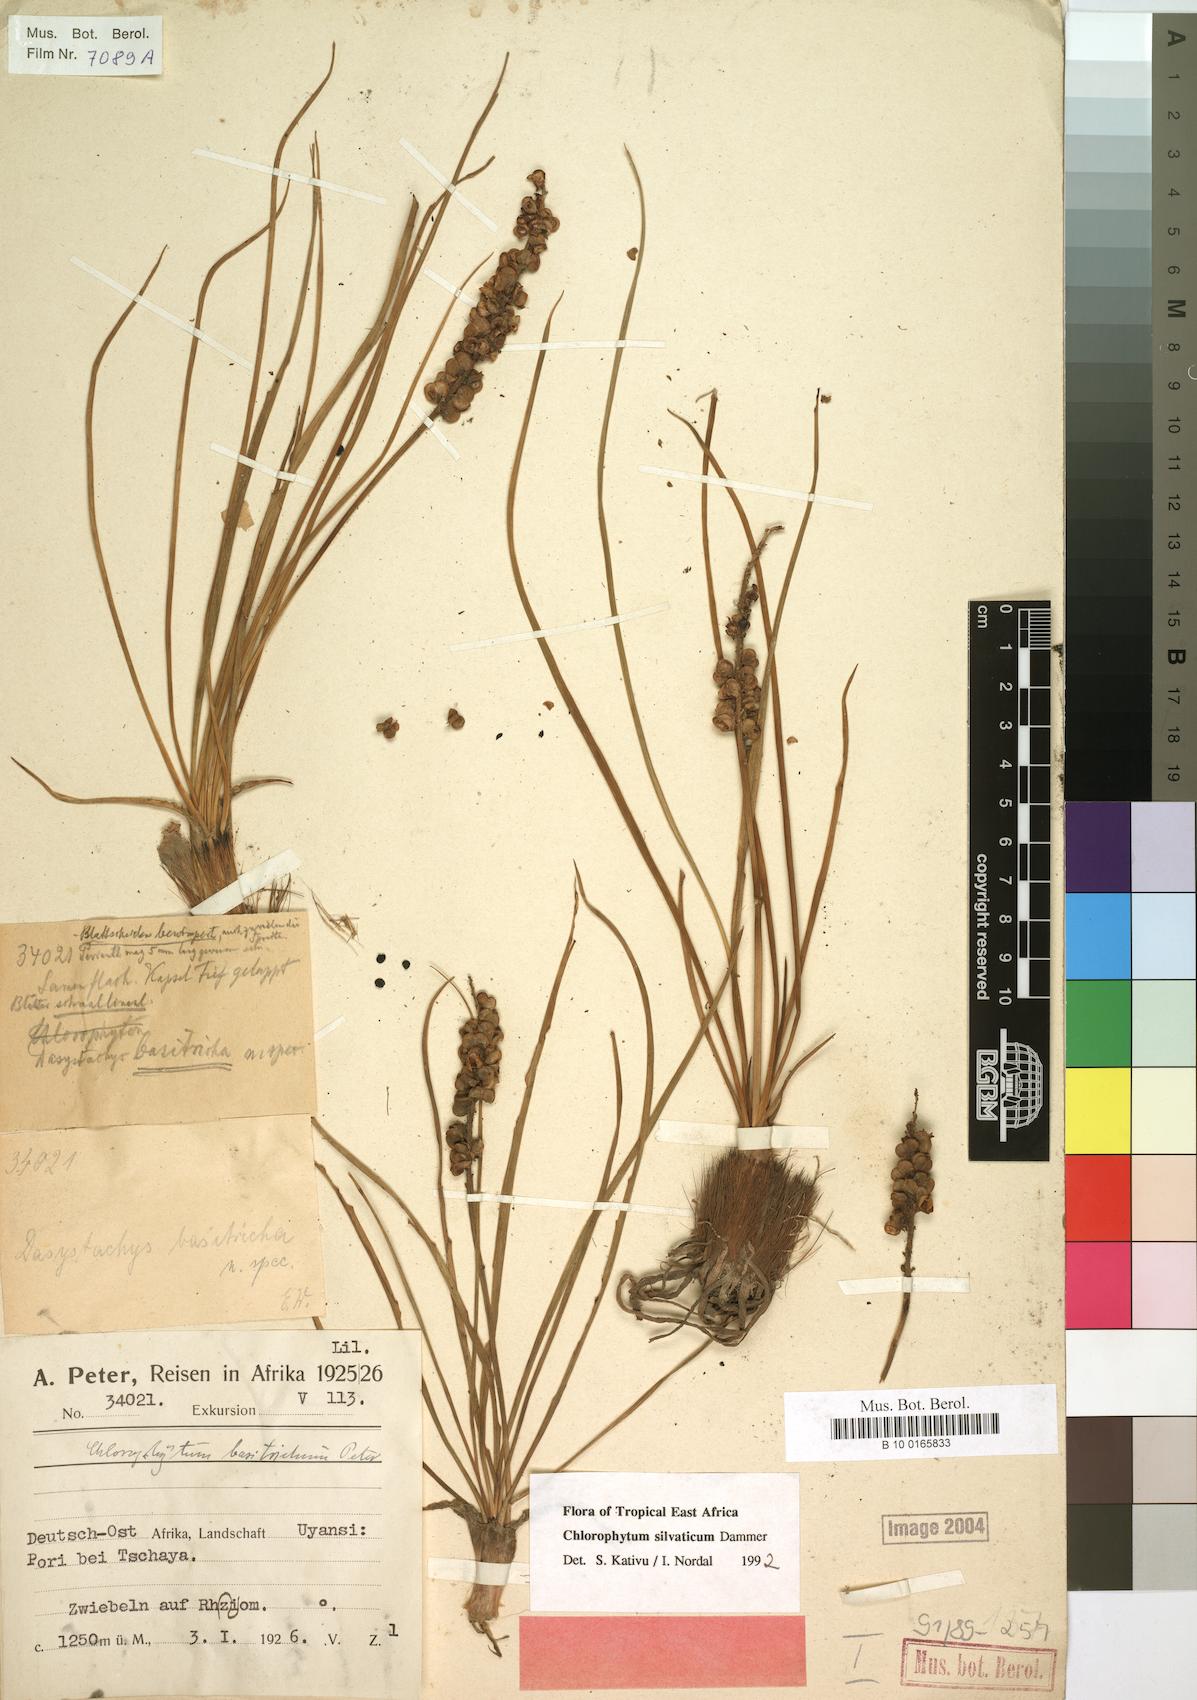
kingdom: Plantae
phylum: Tracheophyta
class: Liliopsida
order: Asparagales
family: Asparagaceae
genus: Chlorophytum
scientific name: Chlorophytum africanum
